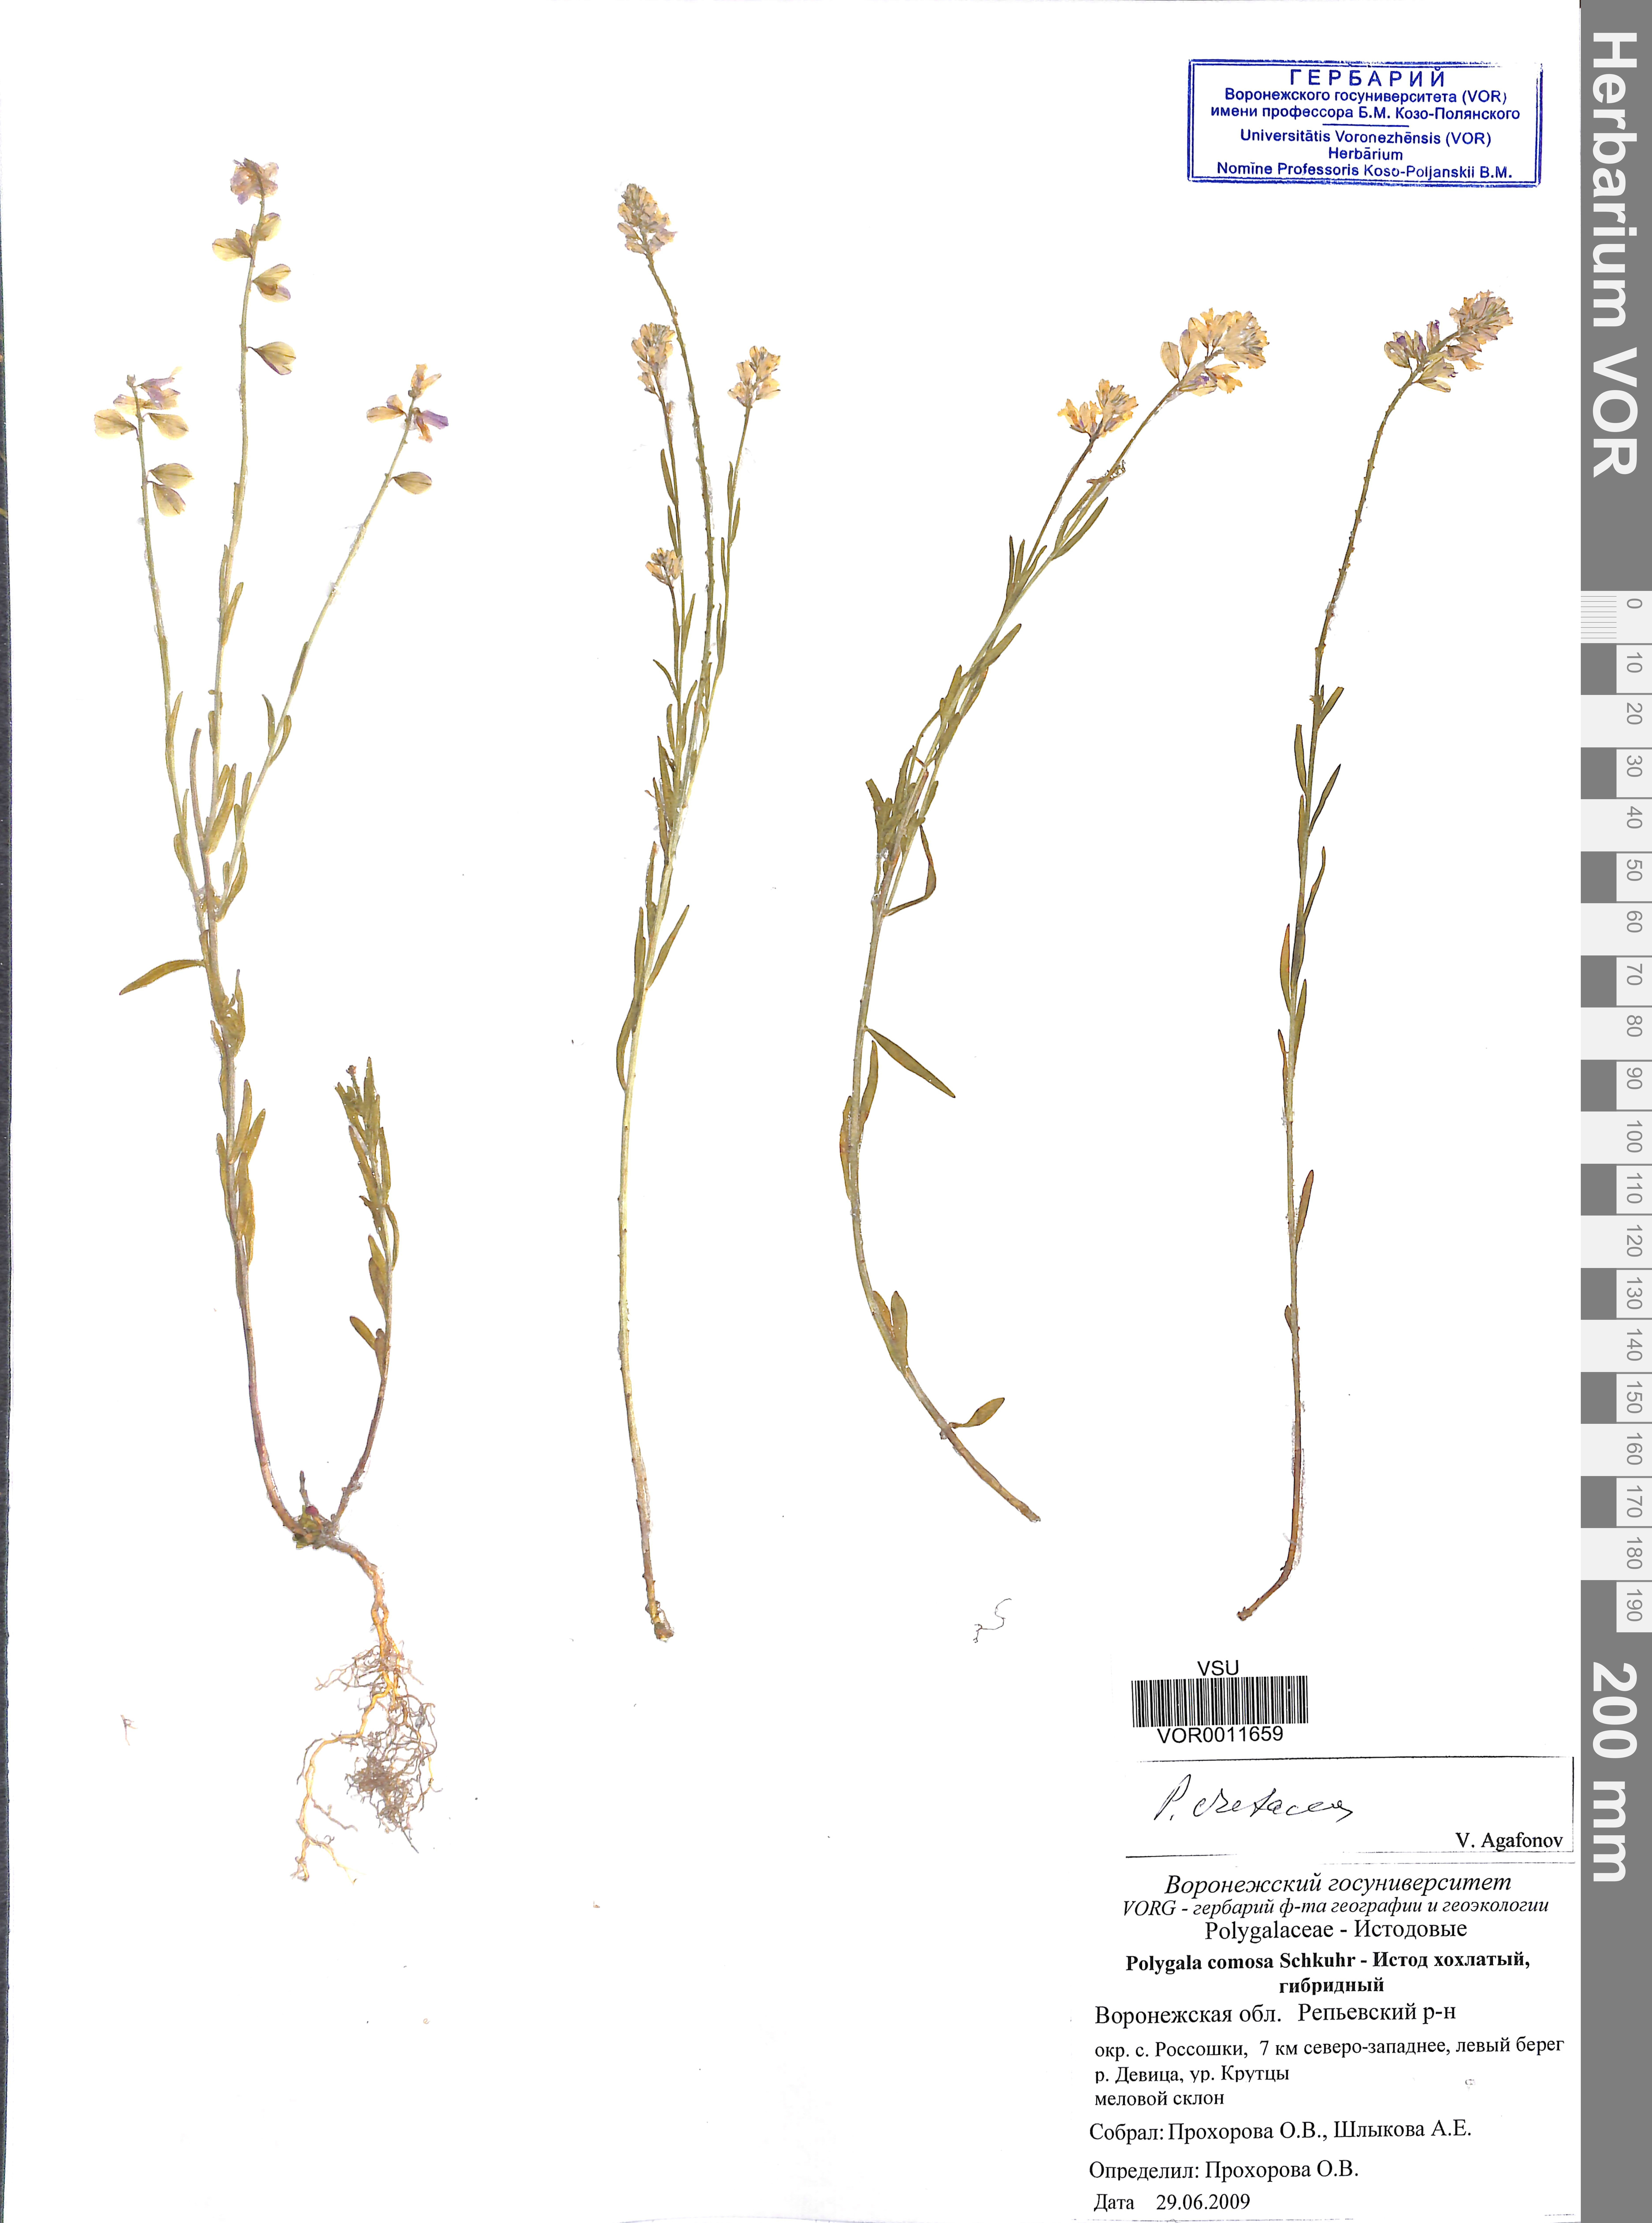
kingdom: Plantae
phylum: Tracheophyta
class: Magnoliopsida
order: Fabales
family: Polygalaceae
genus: Polygala
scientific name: Polygala nicaeensis
